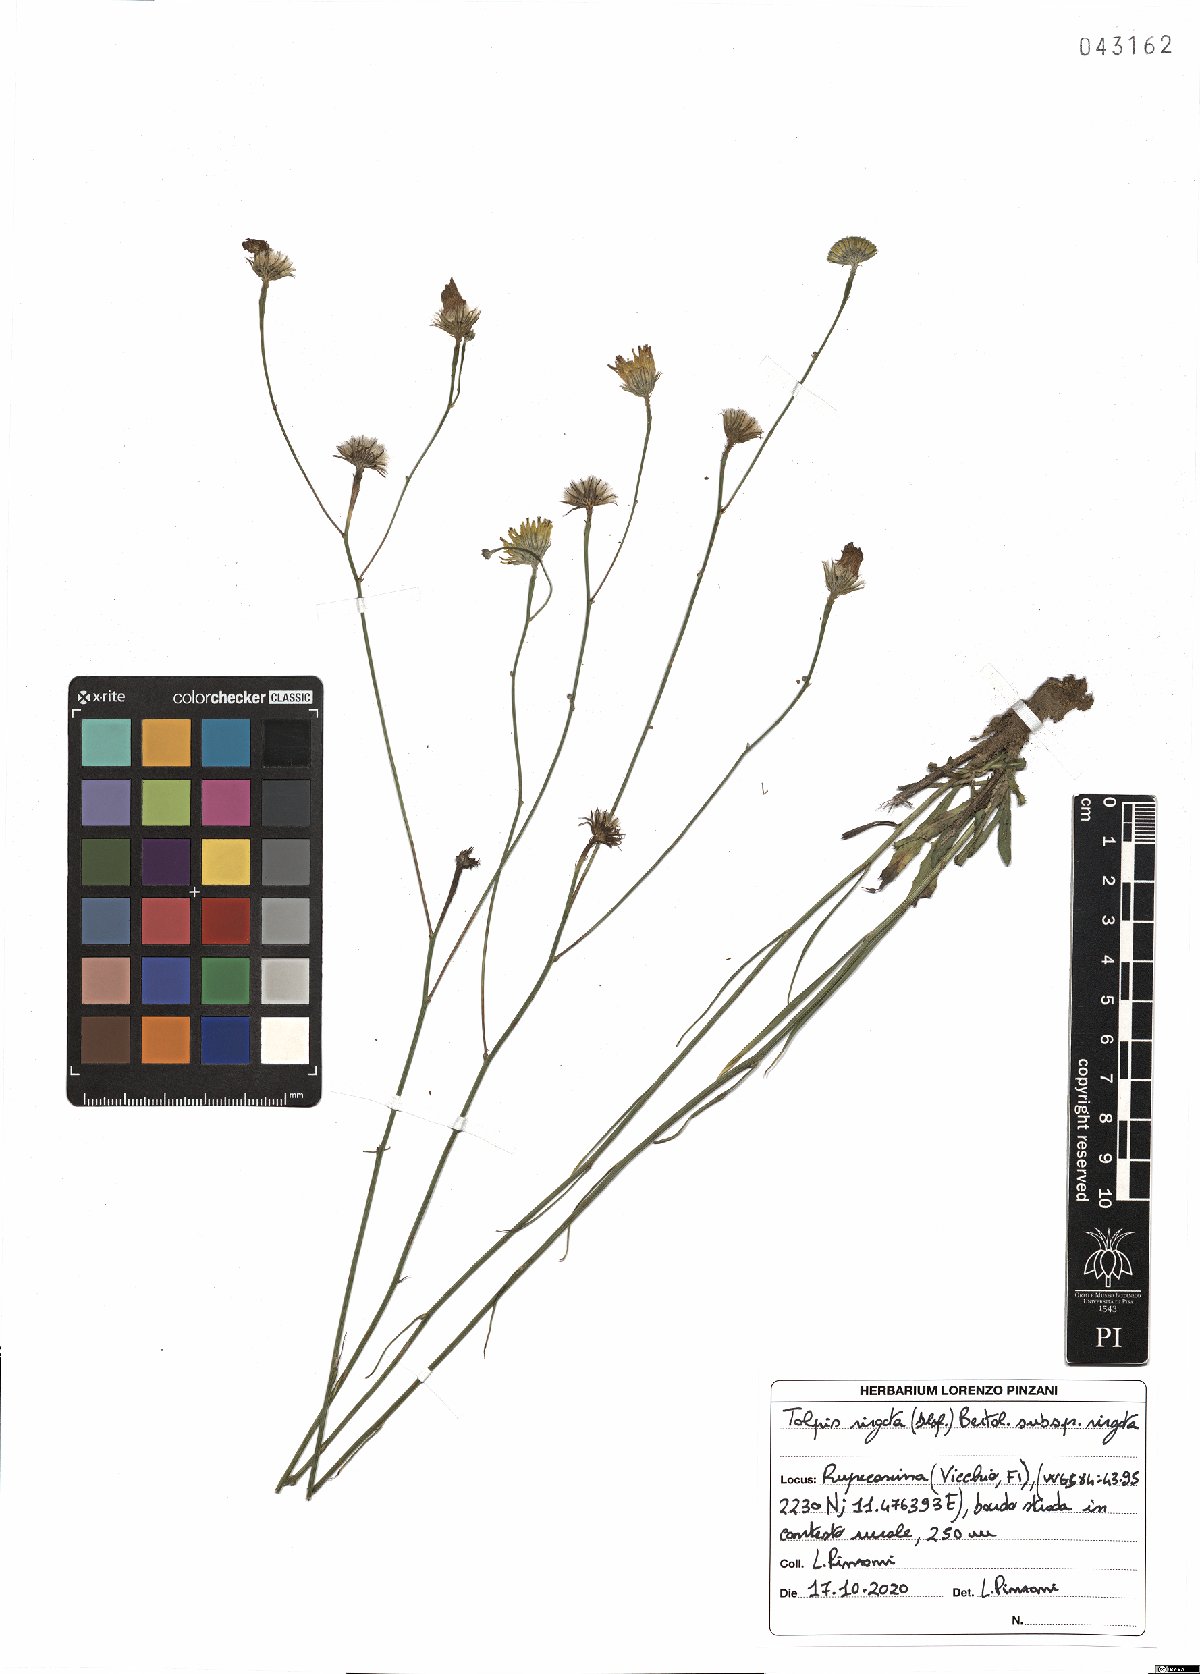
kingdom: Plantae
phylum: Tracheophyta
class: Magnoliopsida
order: Asterales
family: Asteraceae
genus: Tolpis
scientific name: Tolpis virgata
